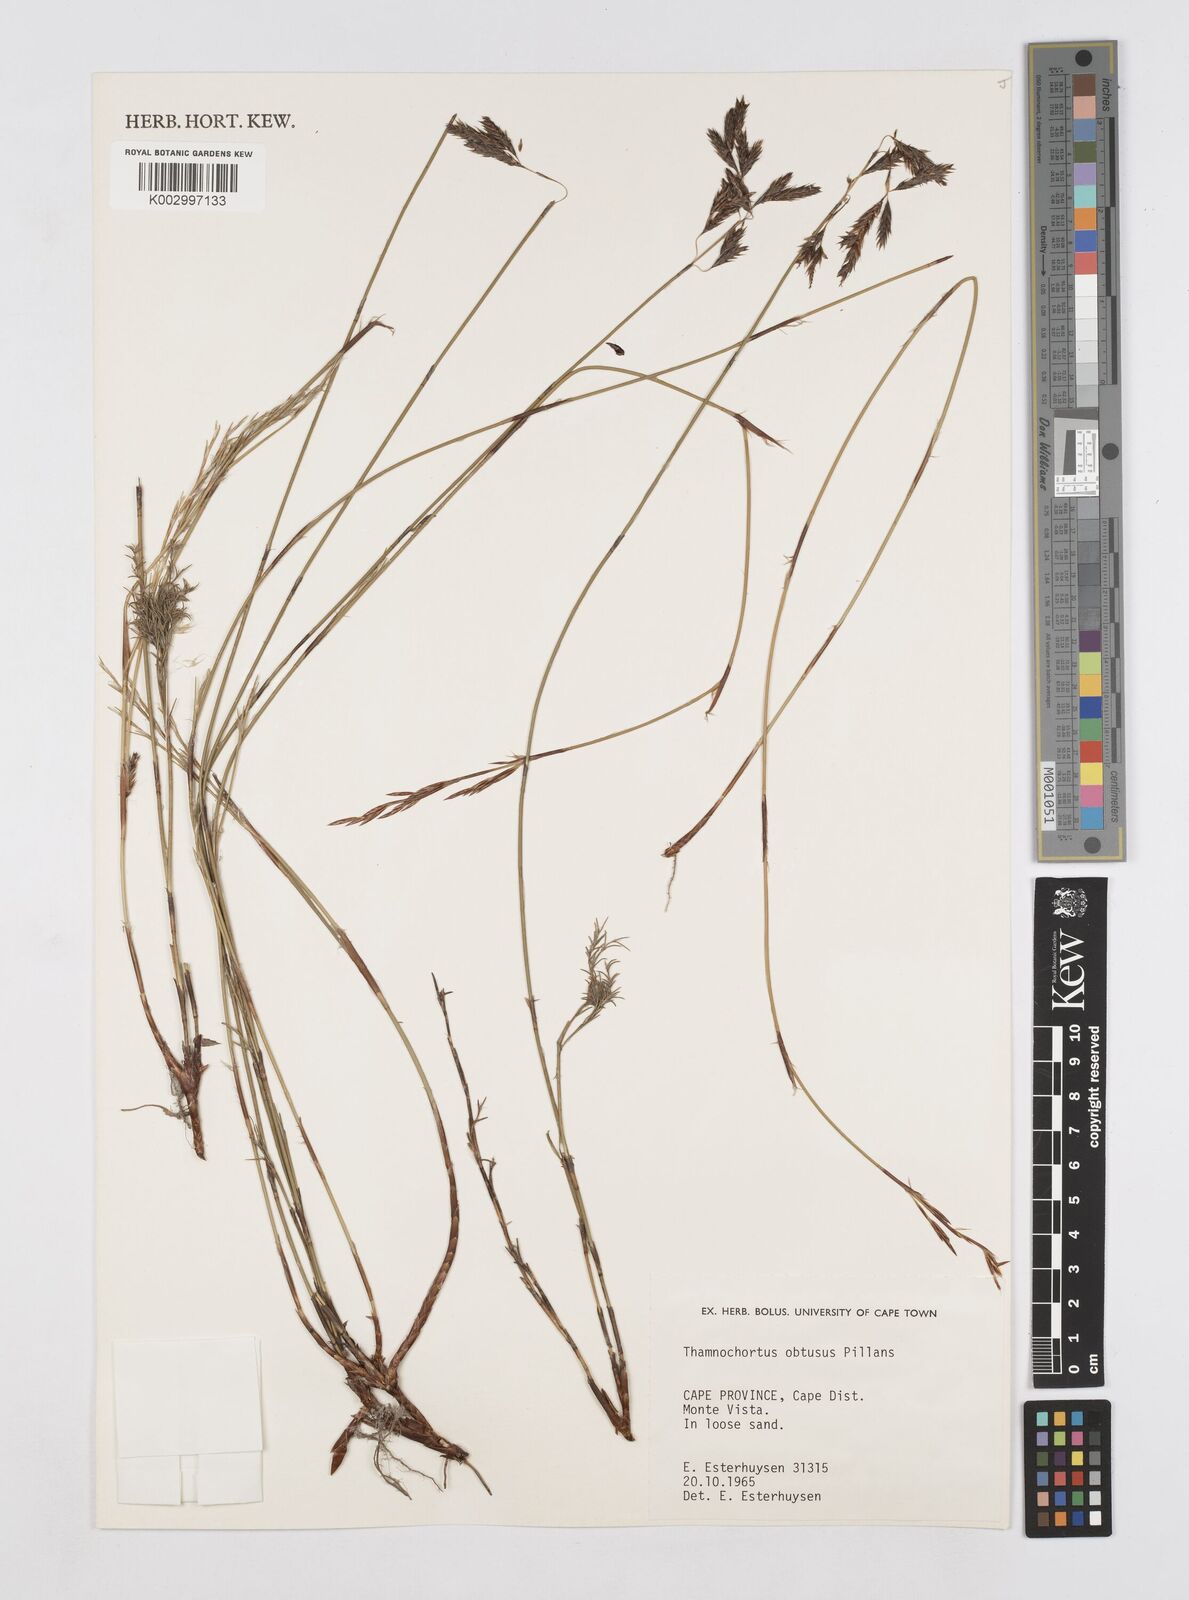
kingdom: Plantae
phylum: Tracheophyta
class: Liliopsida
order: Poales
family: Restionaceae
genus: Thamnochortus
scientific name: Thamnochortus obtusus
